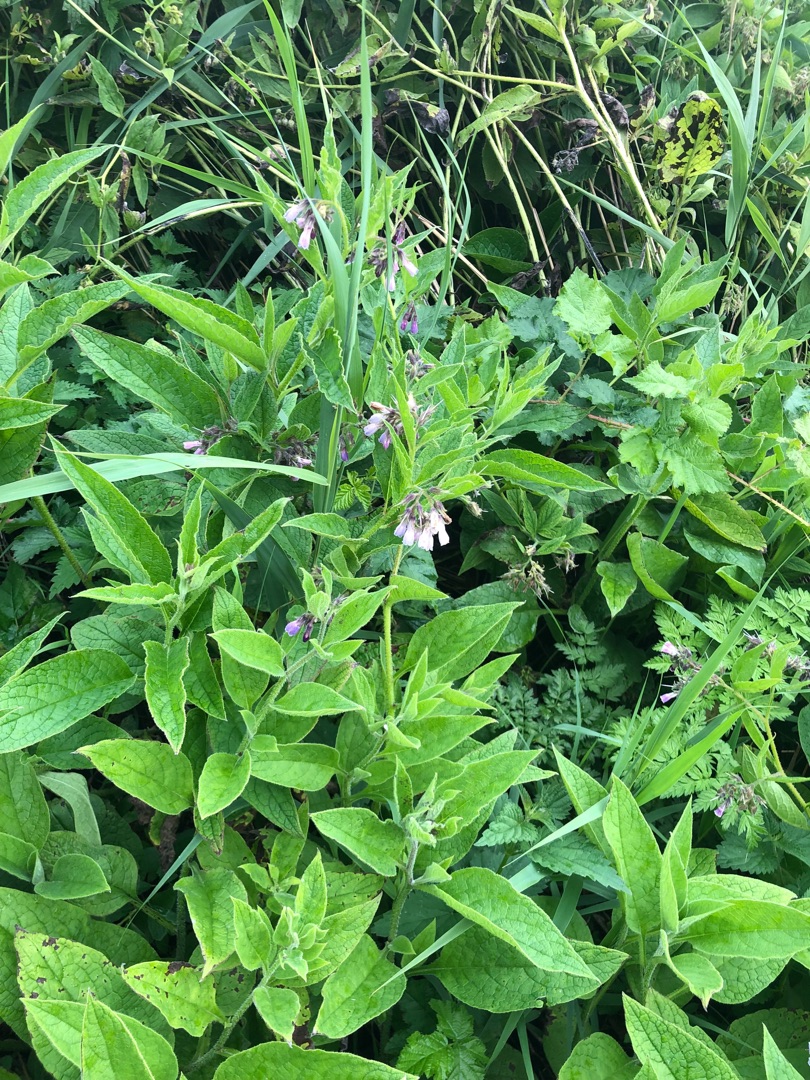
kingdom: Plantae
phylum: Tracheophyta
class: Magnoliopsida
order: Boraginales
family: Boraginaceae
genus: Symphytum
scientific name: Symphytum uplandicum
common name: Foder-kulsukker
